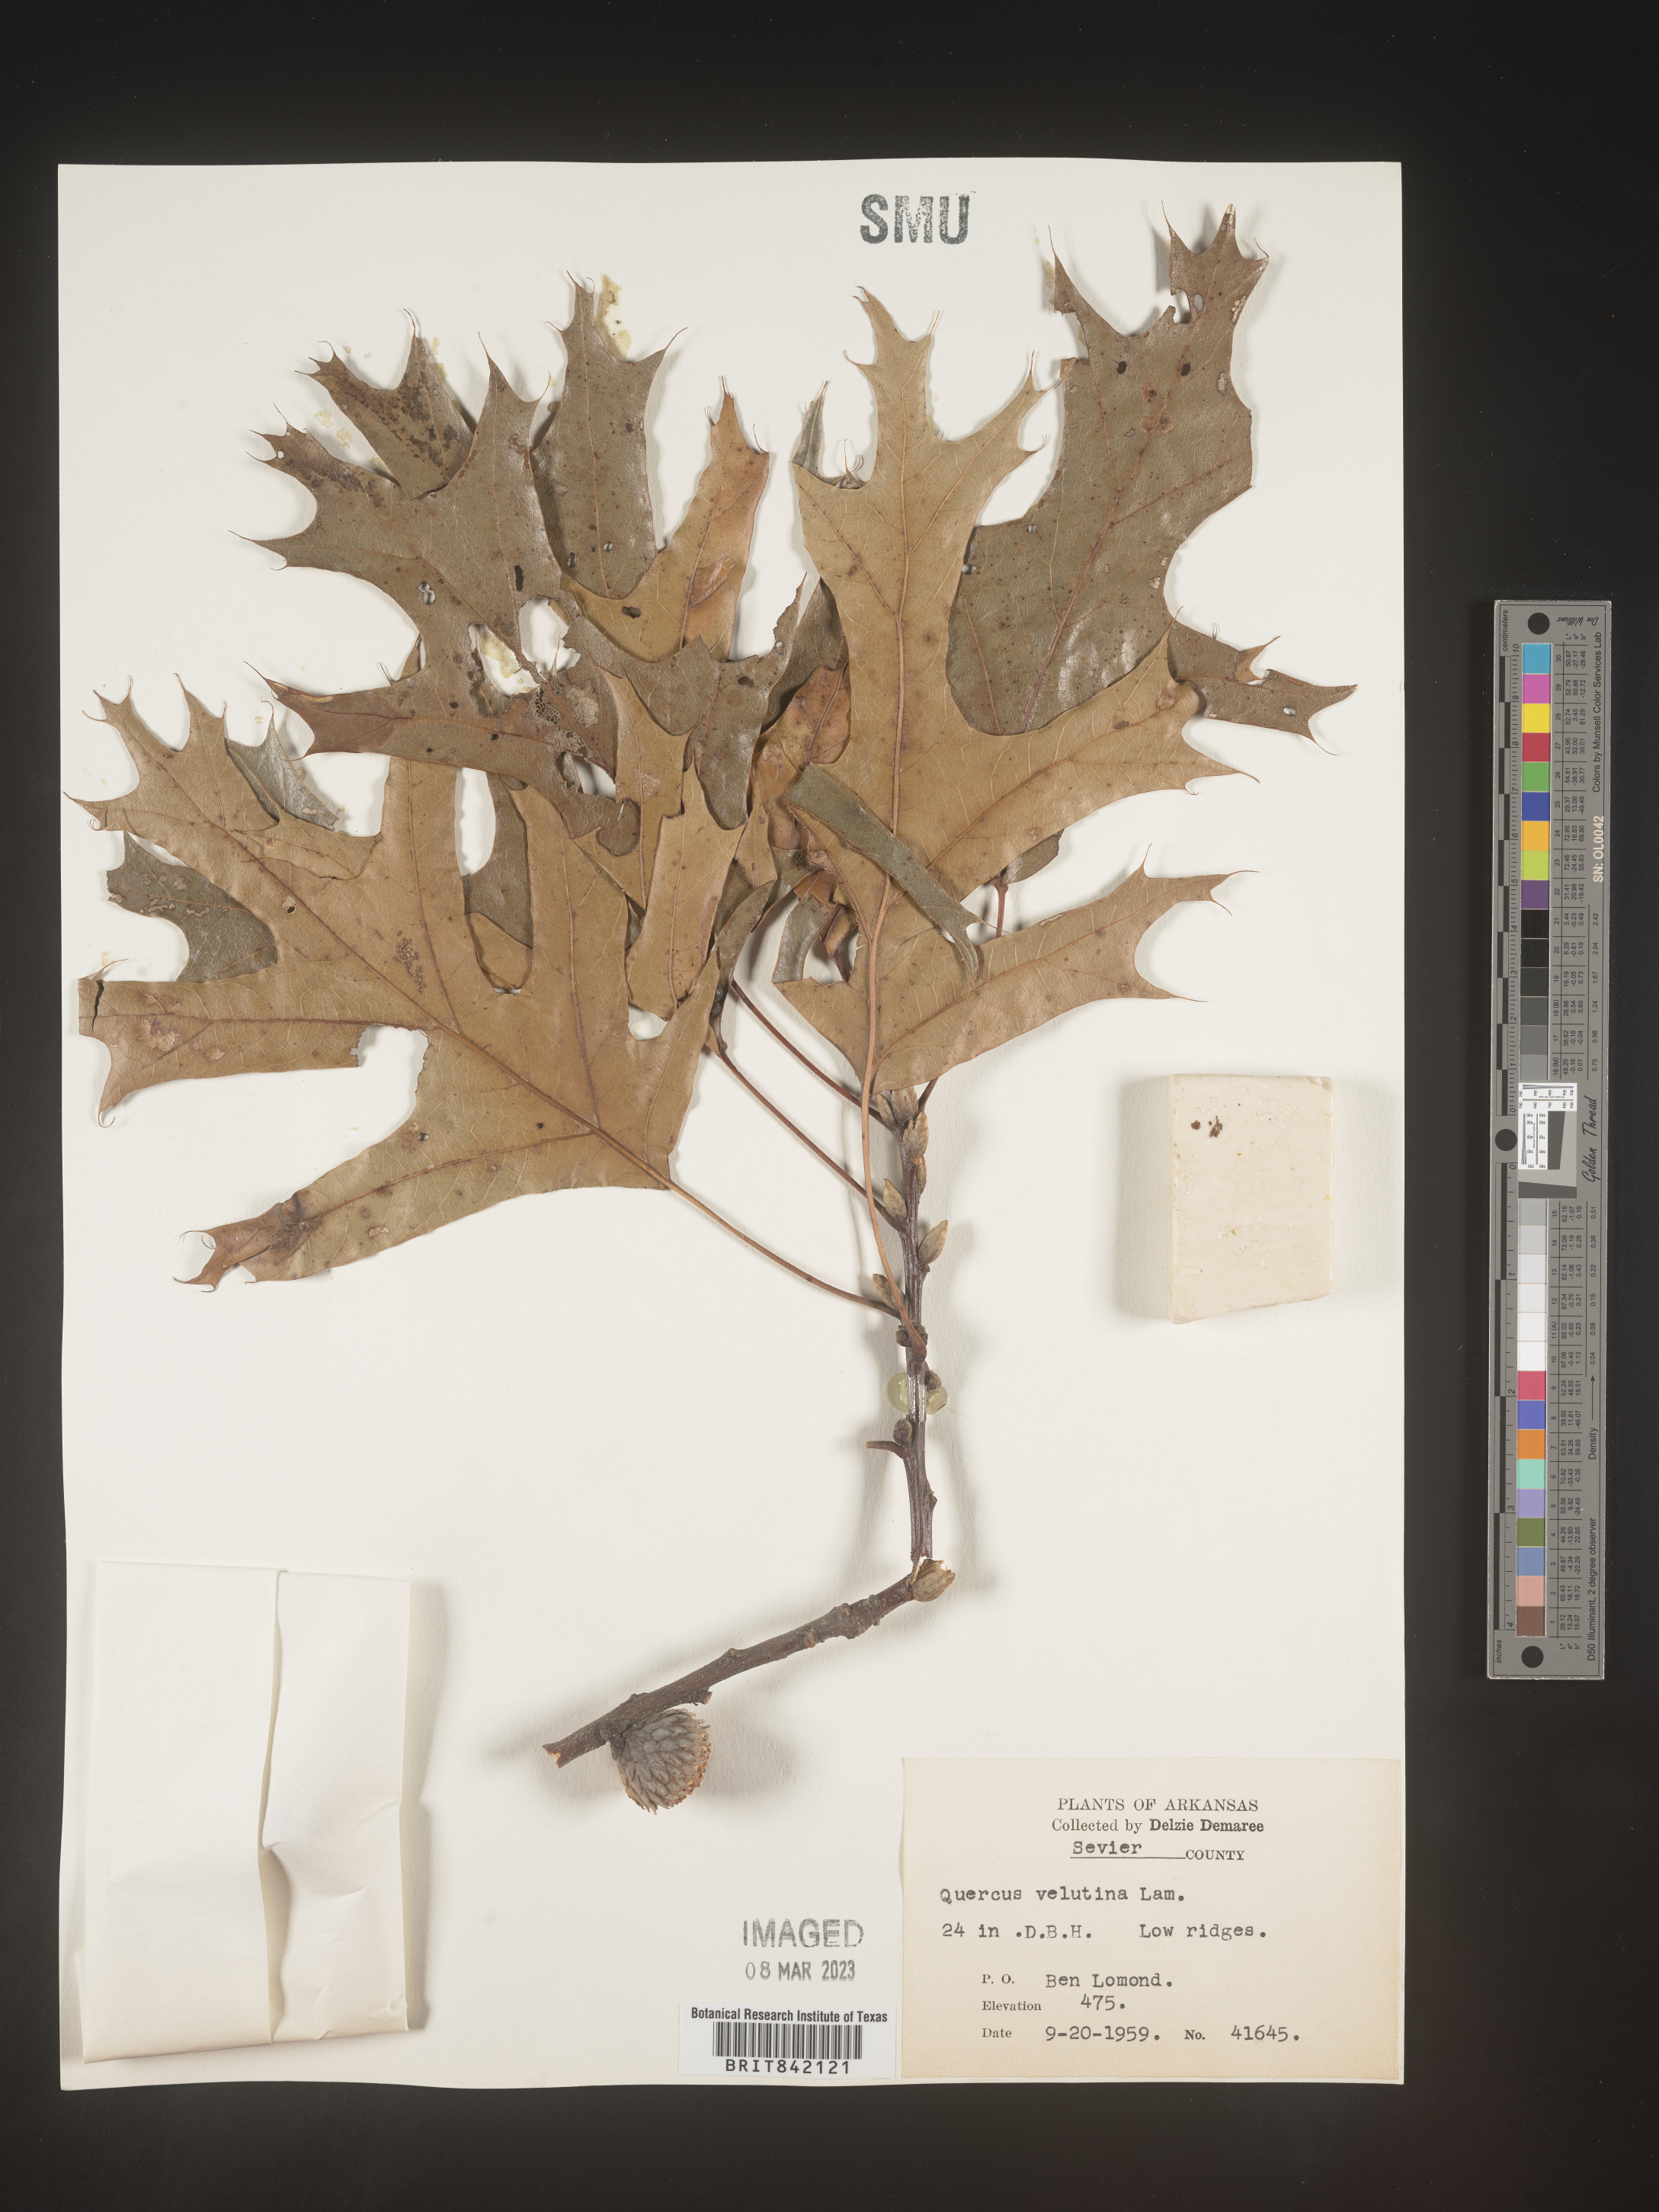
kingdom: Plantae
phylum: Tracheophyta
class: Magnoliopsida
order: Fagales
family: Fagaceae
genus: Quercus
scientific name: Quercus velutina
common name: Black oak
